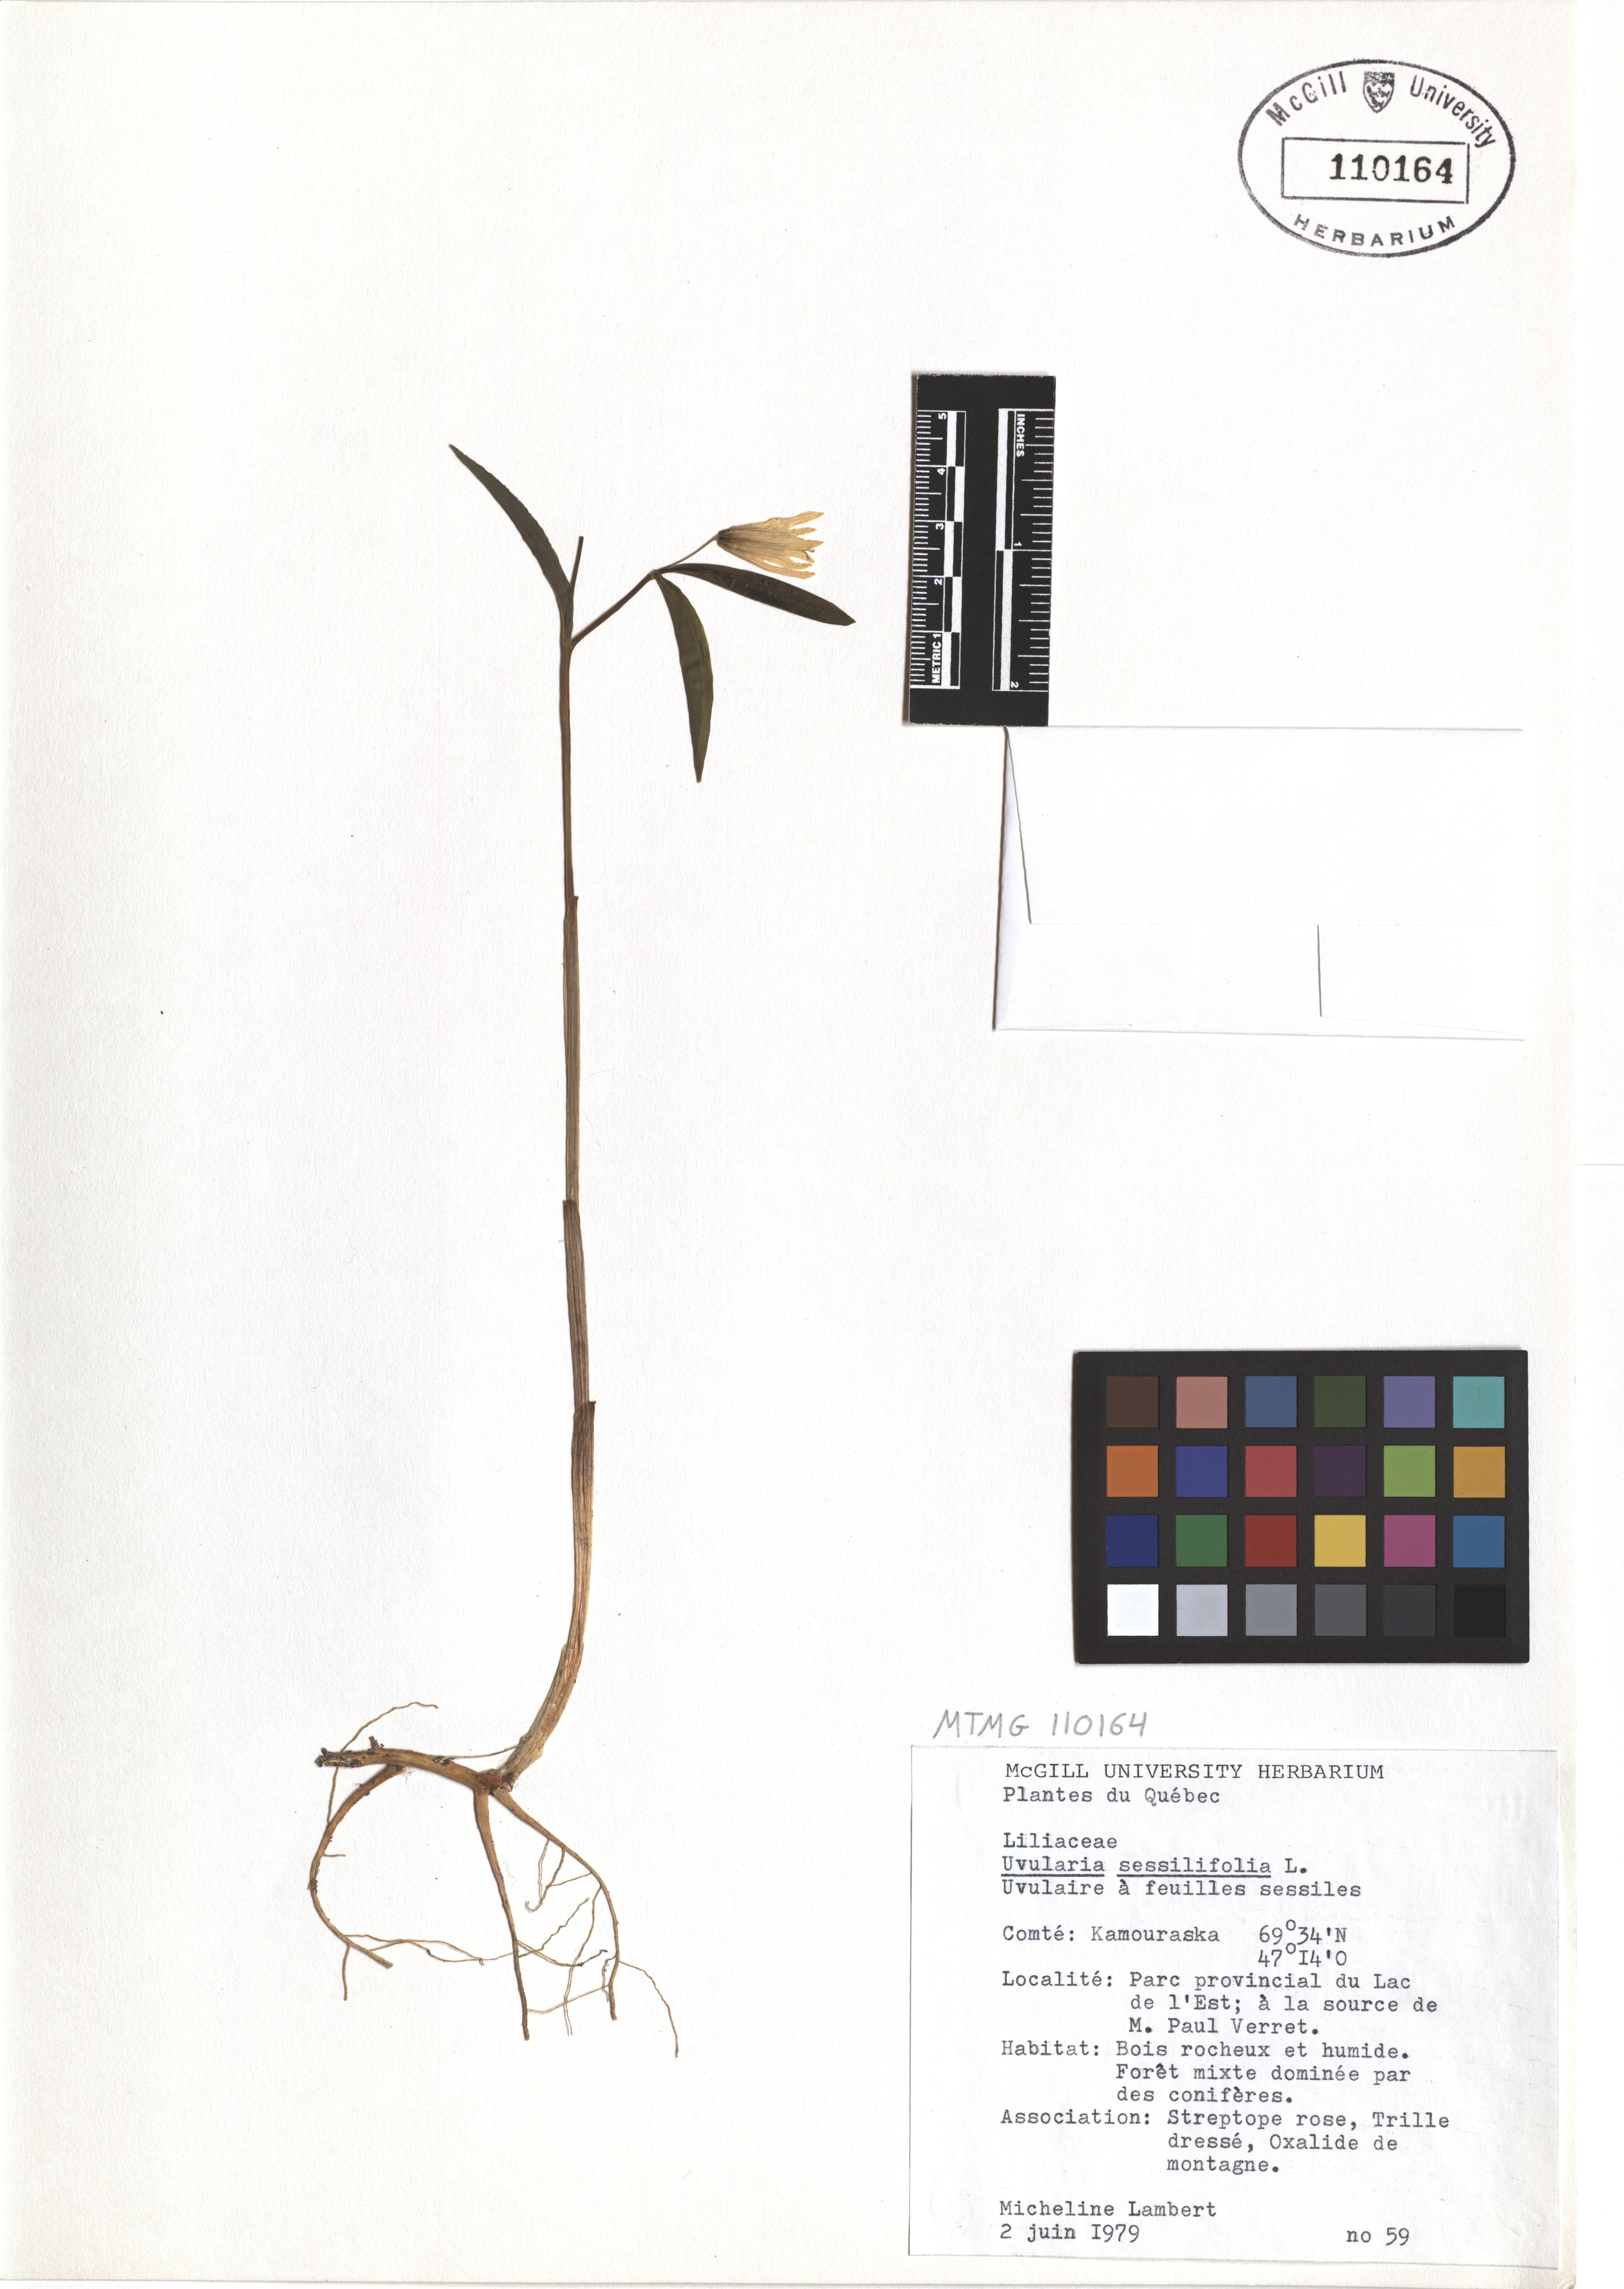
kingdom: Plantae
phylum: Tracheophyta
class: Liliopsida
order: Liliales
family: Colchicaceae
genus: Uvularia
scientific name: Uvularia sessilifolia
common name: Straw-lily
